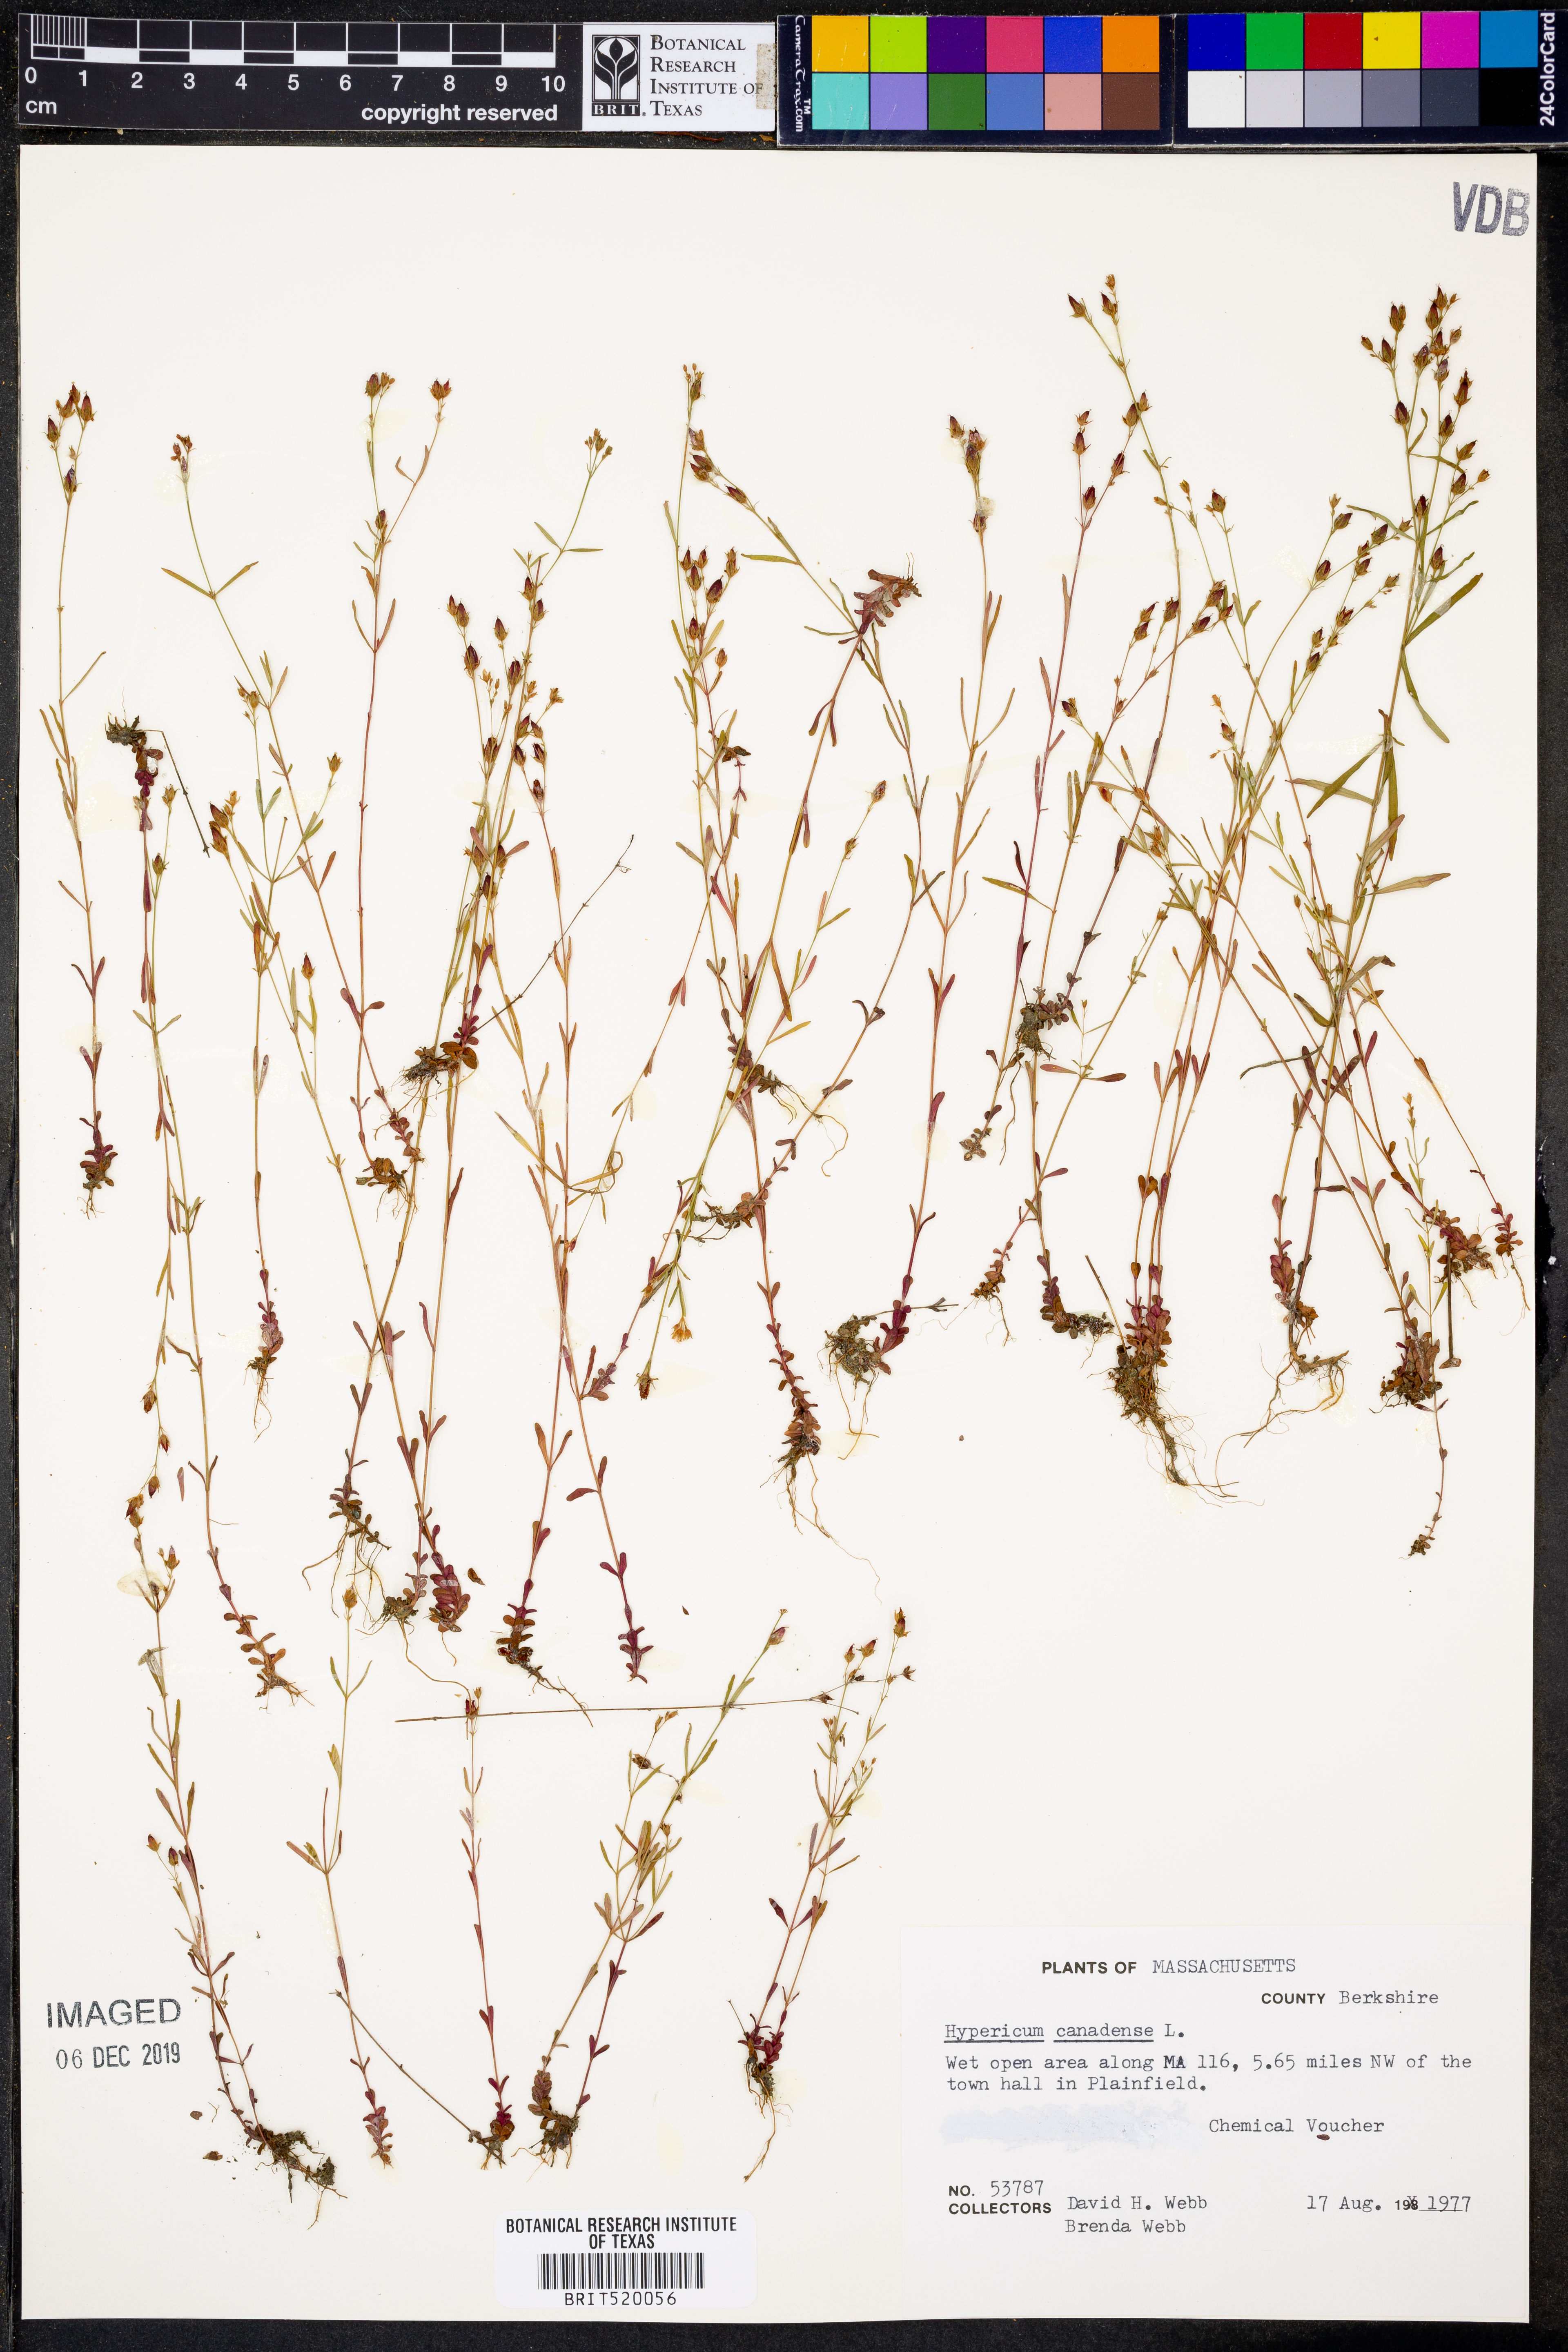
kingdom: Plantae
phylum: Tracheophyta
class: Magnoliopsida
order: Malpighiales
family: Hypericaceae
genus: Hypericum
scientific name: Hypericum canadense
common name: Irish st. john's-wort
